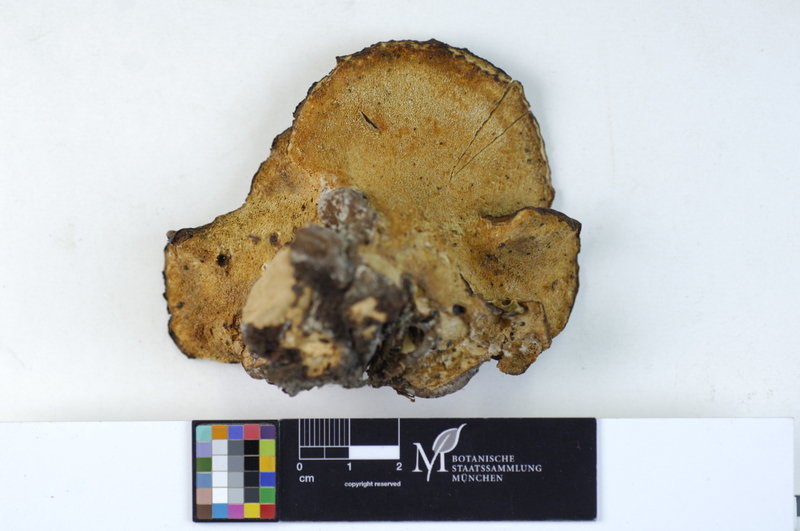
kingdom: Fungi
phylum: Basidiomycota
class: Agaricomycetes
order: Polyporales
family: Ischnodermataceae
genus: Ischnoderma
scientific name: Ischnoderma resinosum
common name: Resinous polypore
